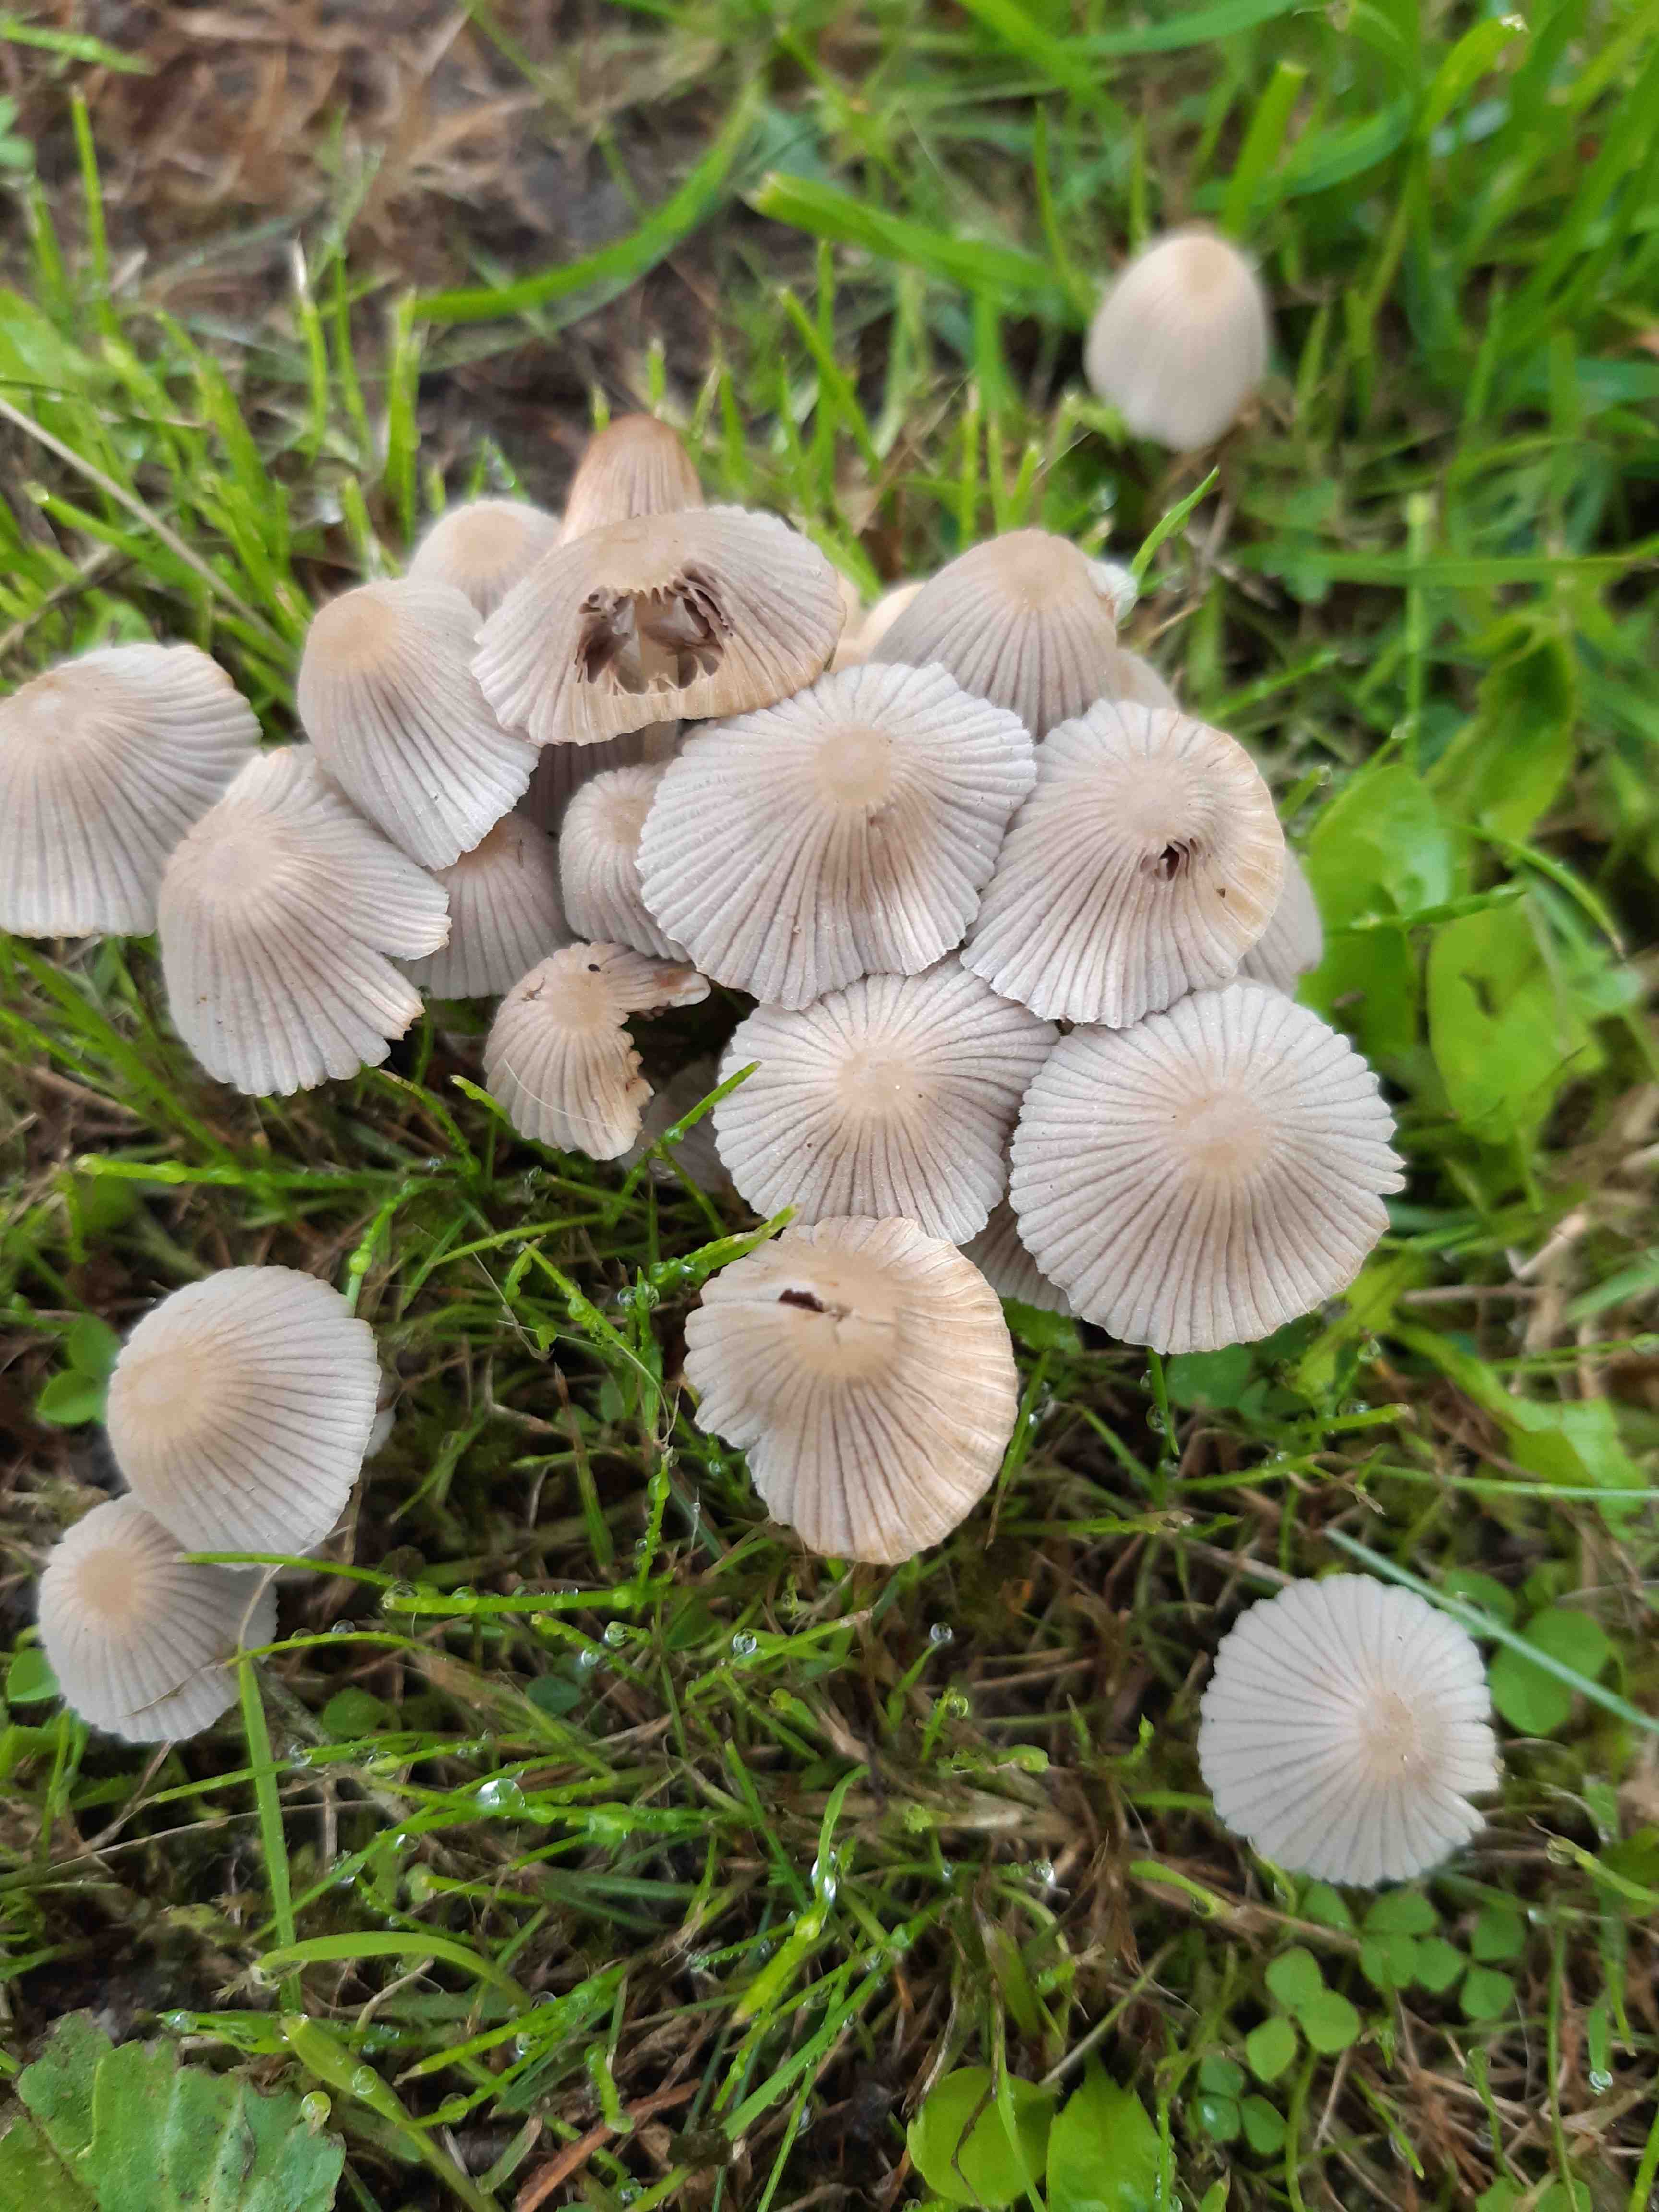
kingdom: Fungi
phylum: Basidiomycota
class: Agaricomycetes
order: Agaricales
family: Psathyrellaceae
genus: Coprinellus
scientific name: Coprinellus disseminatus
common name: bredsået blækhat
